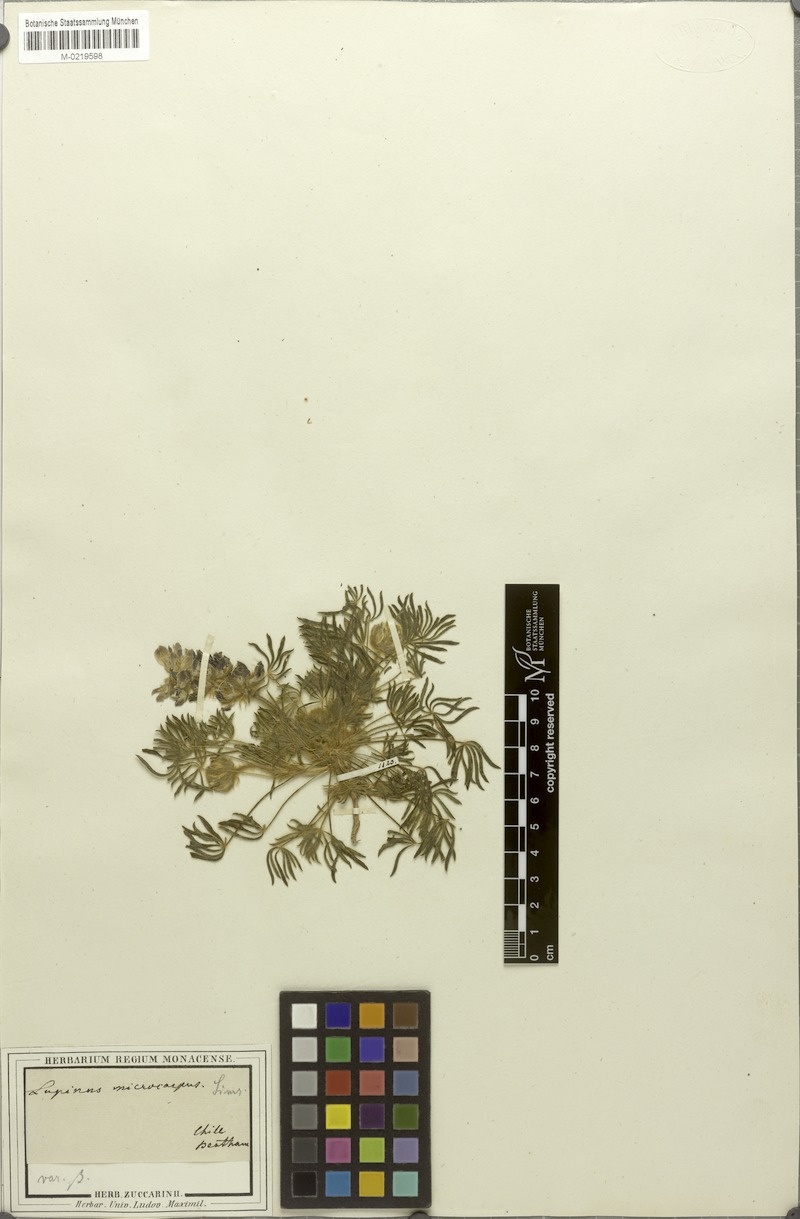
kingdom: Plantae
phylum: Tracheophyta
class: Magnoliopsida
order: Fabales
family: Fabaceae
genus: Lupinus
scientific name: Lupinus microcarpus
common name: Chick lupine
